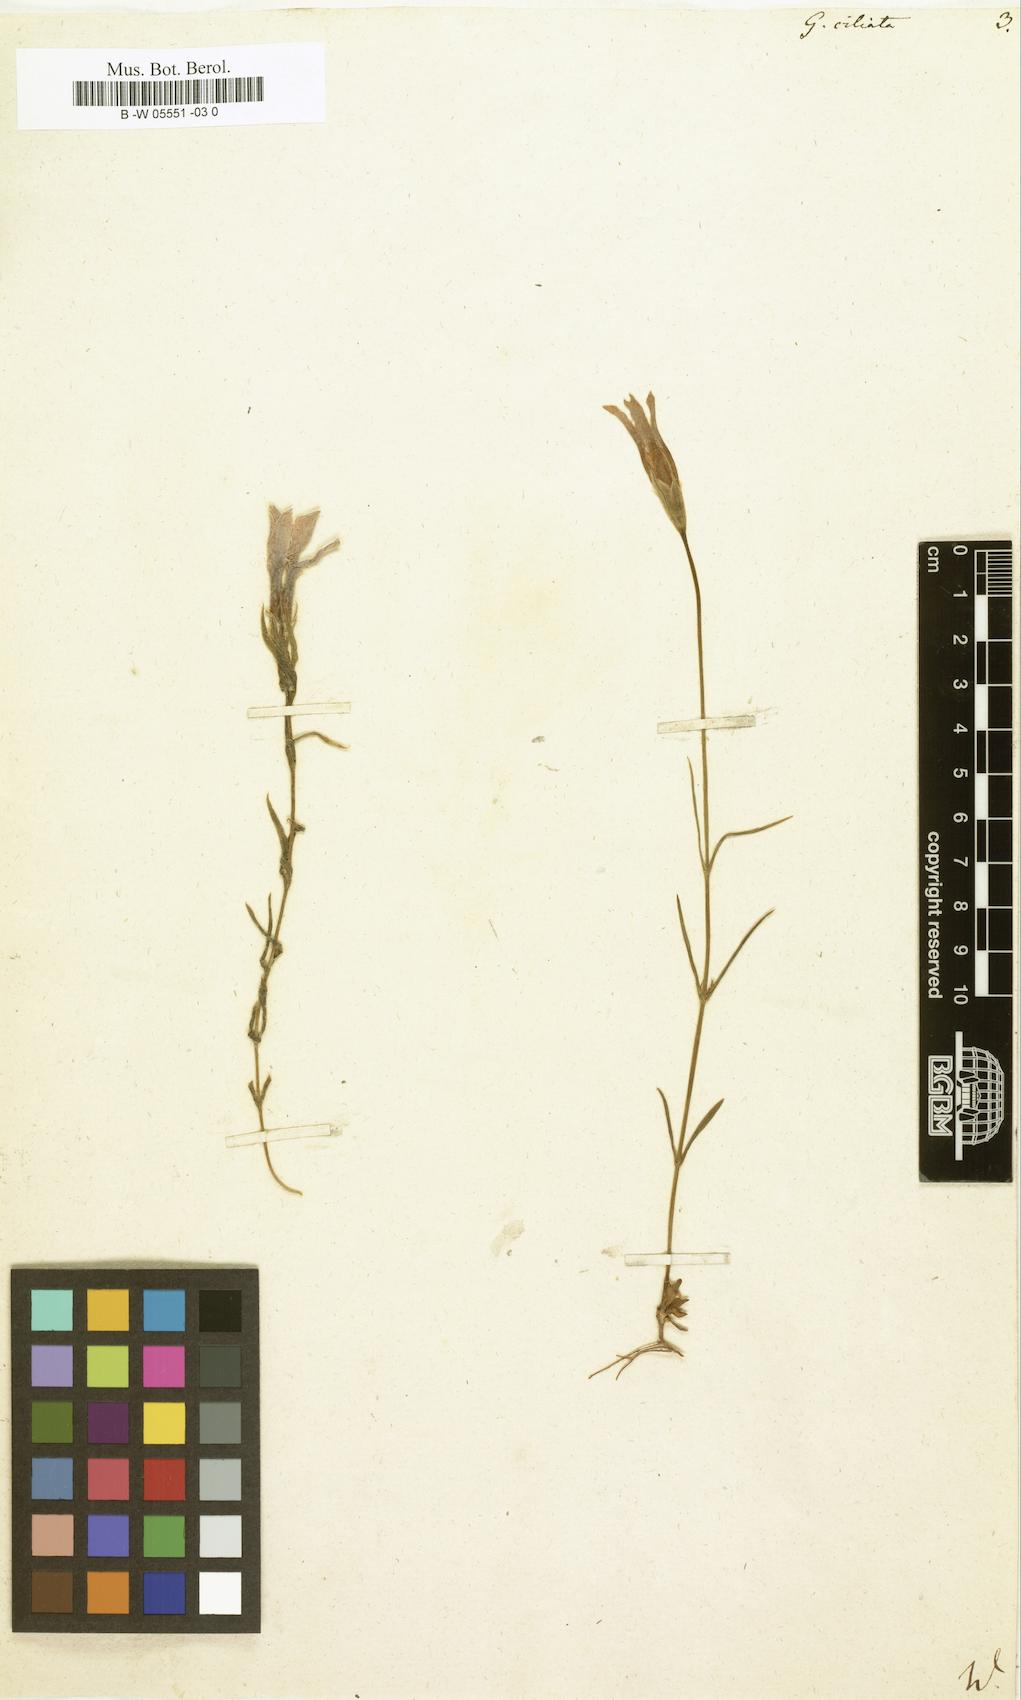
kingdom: Plantae
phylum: Tracheophyta
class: Magnoliopsida
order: Gentianales
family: Gentianaceae
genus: Gentianopsis
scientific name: Gentianopsis
